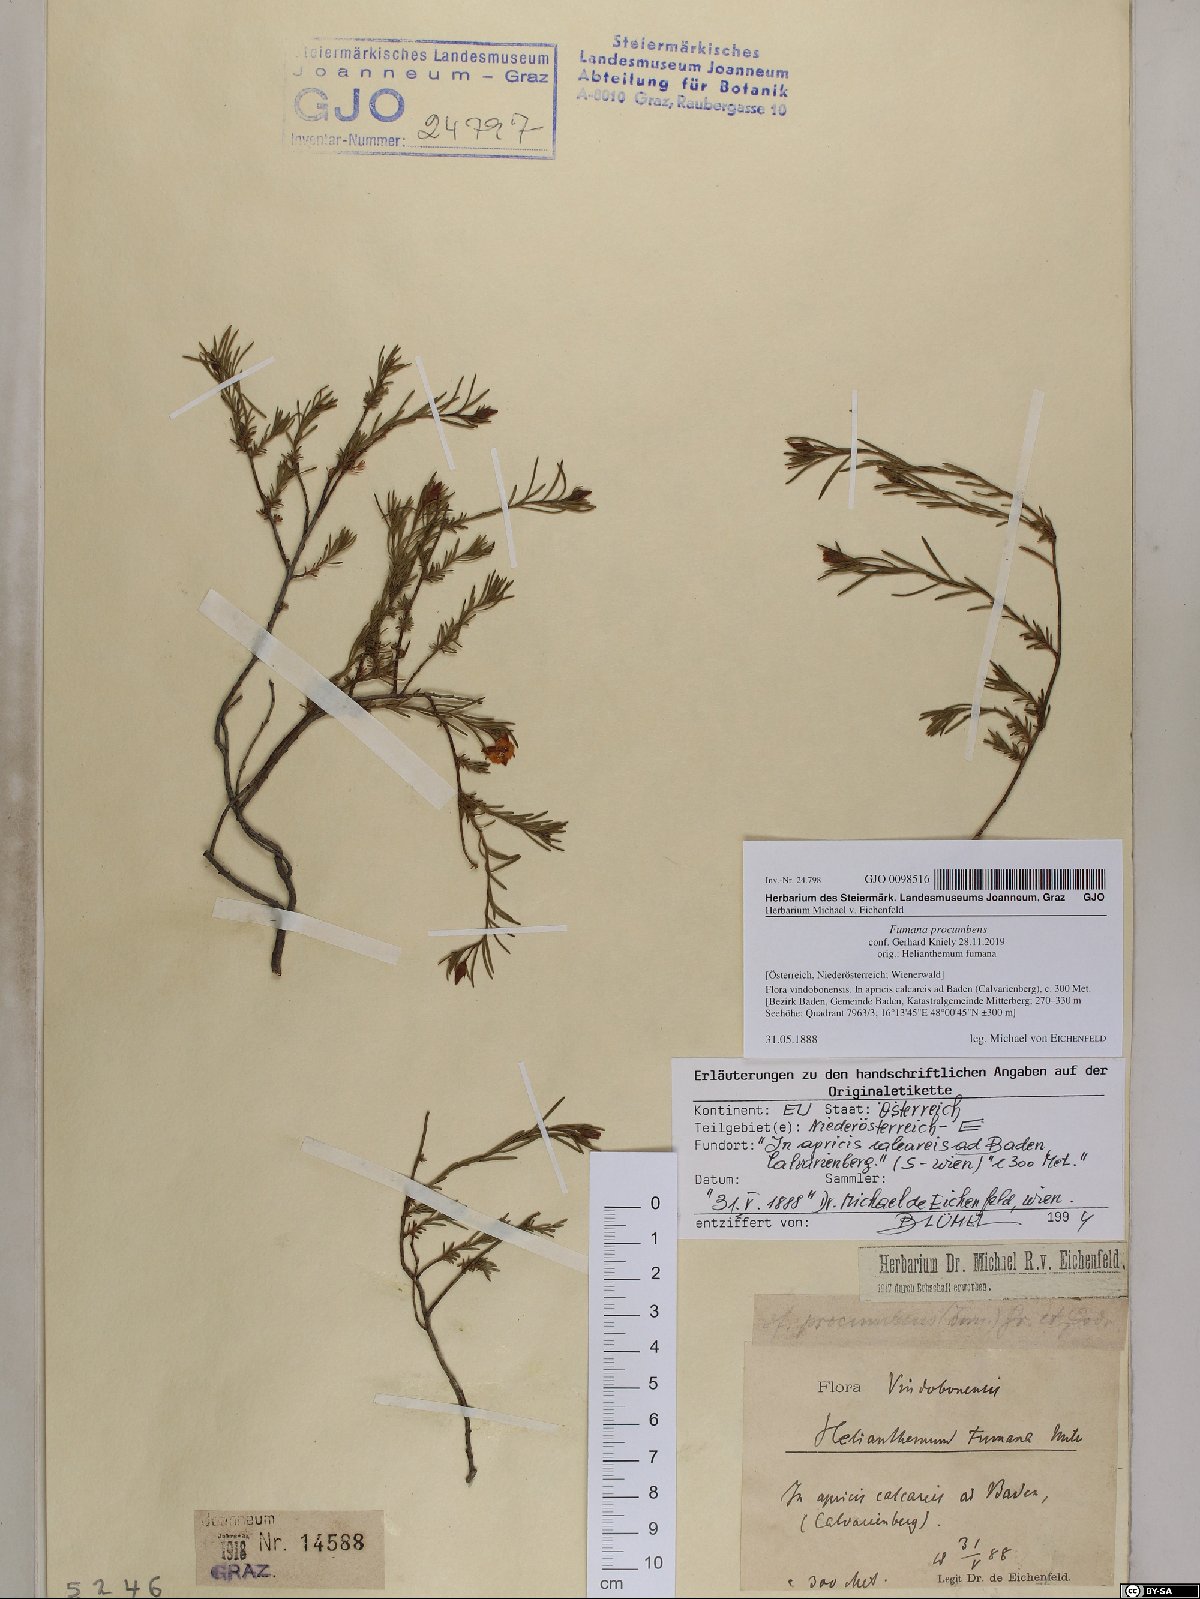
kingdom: Plantae
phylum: Tracheophyta
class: Magnoliopsida
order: Malvales
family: Cistaceae
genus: Fumana
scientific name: Fumana procumbens
